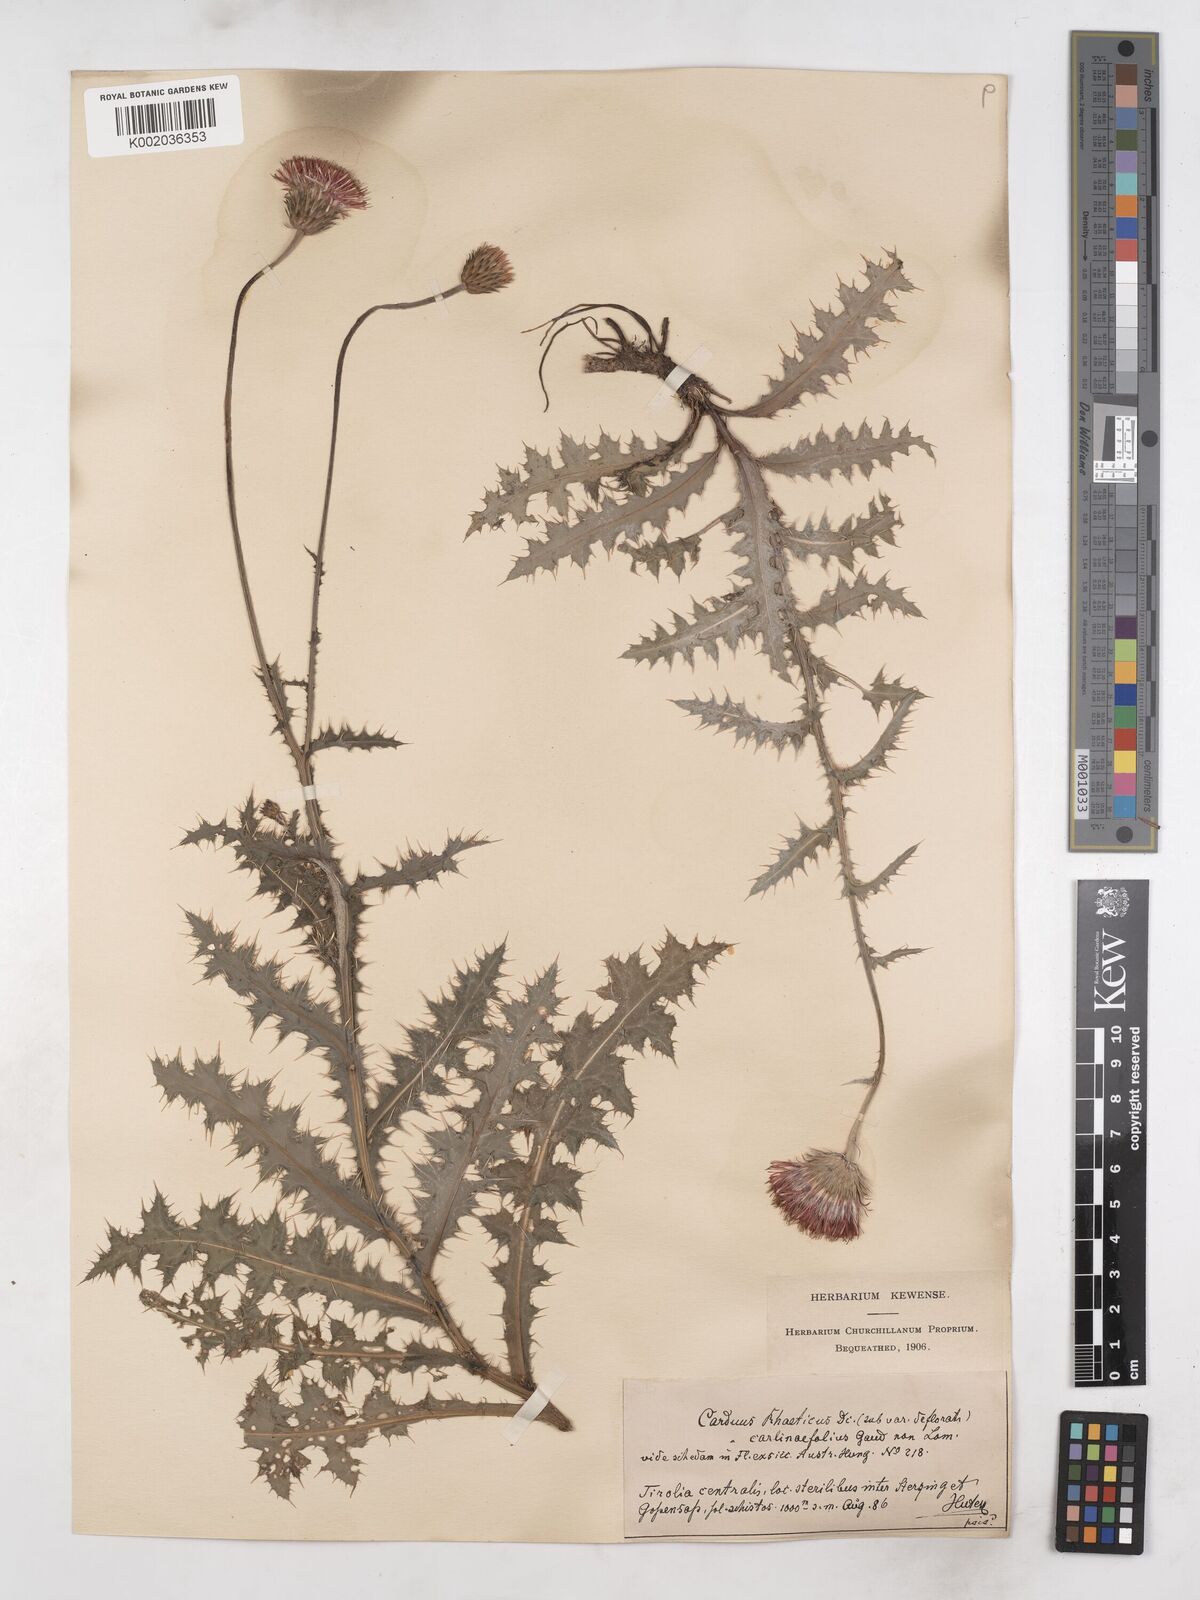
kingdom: Plantae
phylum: Tracheophyta
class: Magnoliopsida
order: Asterales
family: Asteraceae
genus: Carduus
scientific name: Carduus defloratus
